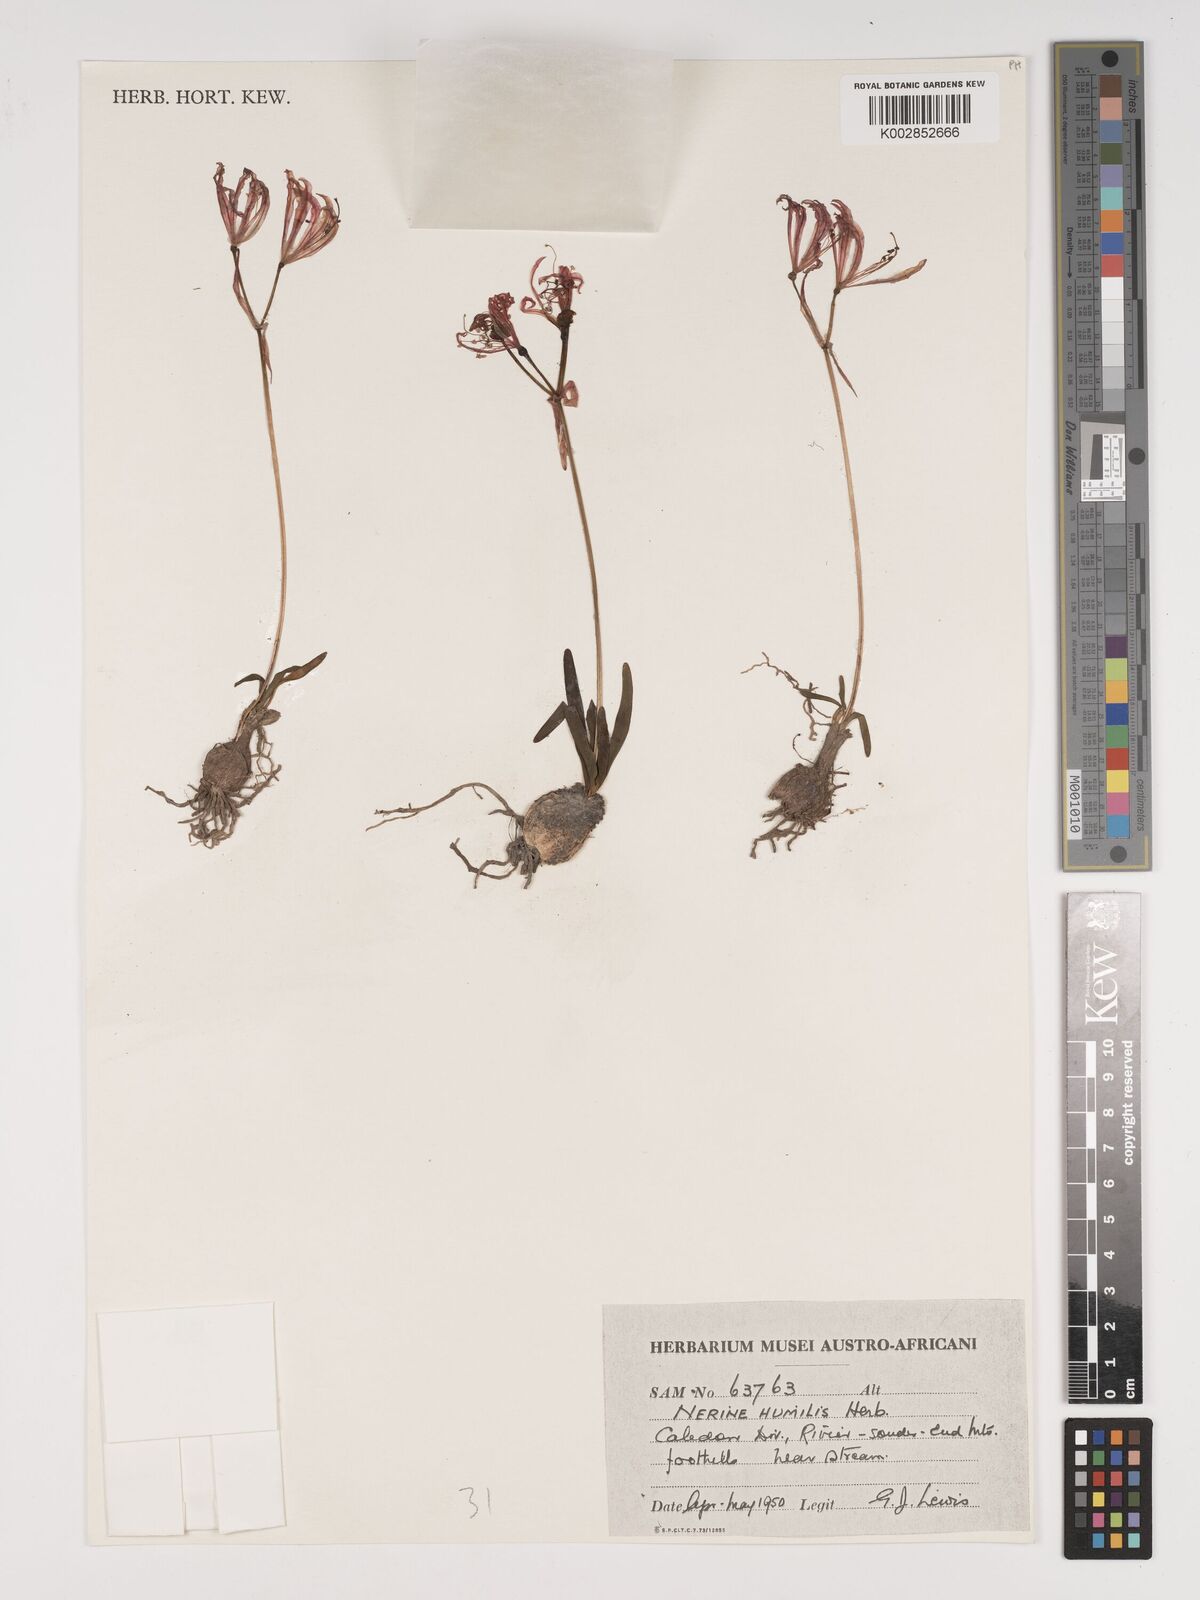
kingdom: Plantae
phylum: Tracheophyta
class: Liliopsida
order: Asparagales
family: Amaryllidaceae
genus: Nerine
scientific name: Nerine humilis
